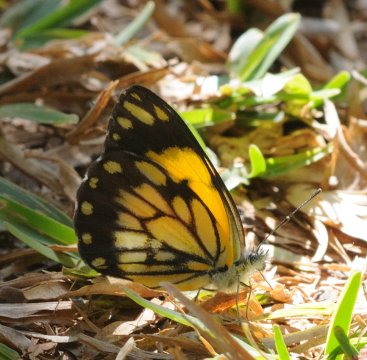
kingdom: Animalia
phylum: Arthropoda
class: Insecta
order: Lepidoptera
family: Pieridae
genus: Belenois
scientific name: Belenois creona
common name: African Caper
